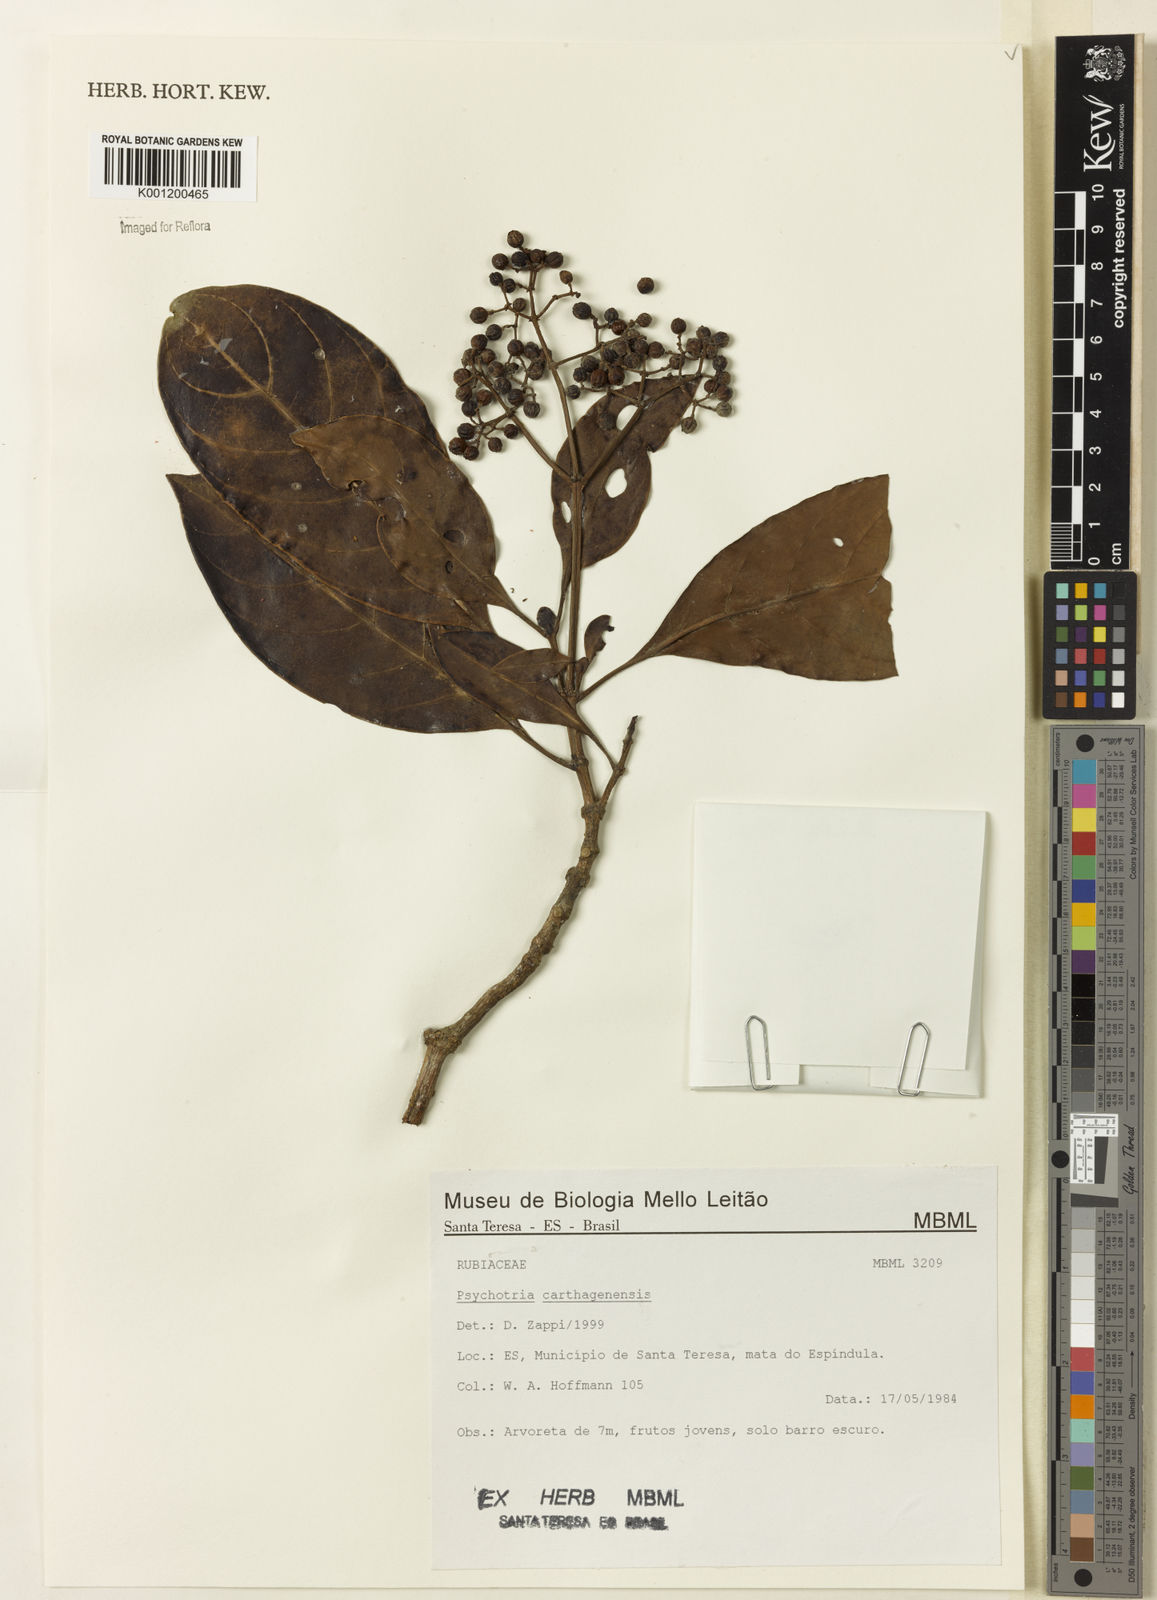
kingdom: Plantae
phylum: Tracheophyta
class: Magnoliopsida
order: Gentianales
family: Rubiaceae
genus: Psychotria
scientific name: Psychotria carthagenensis
